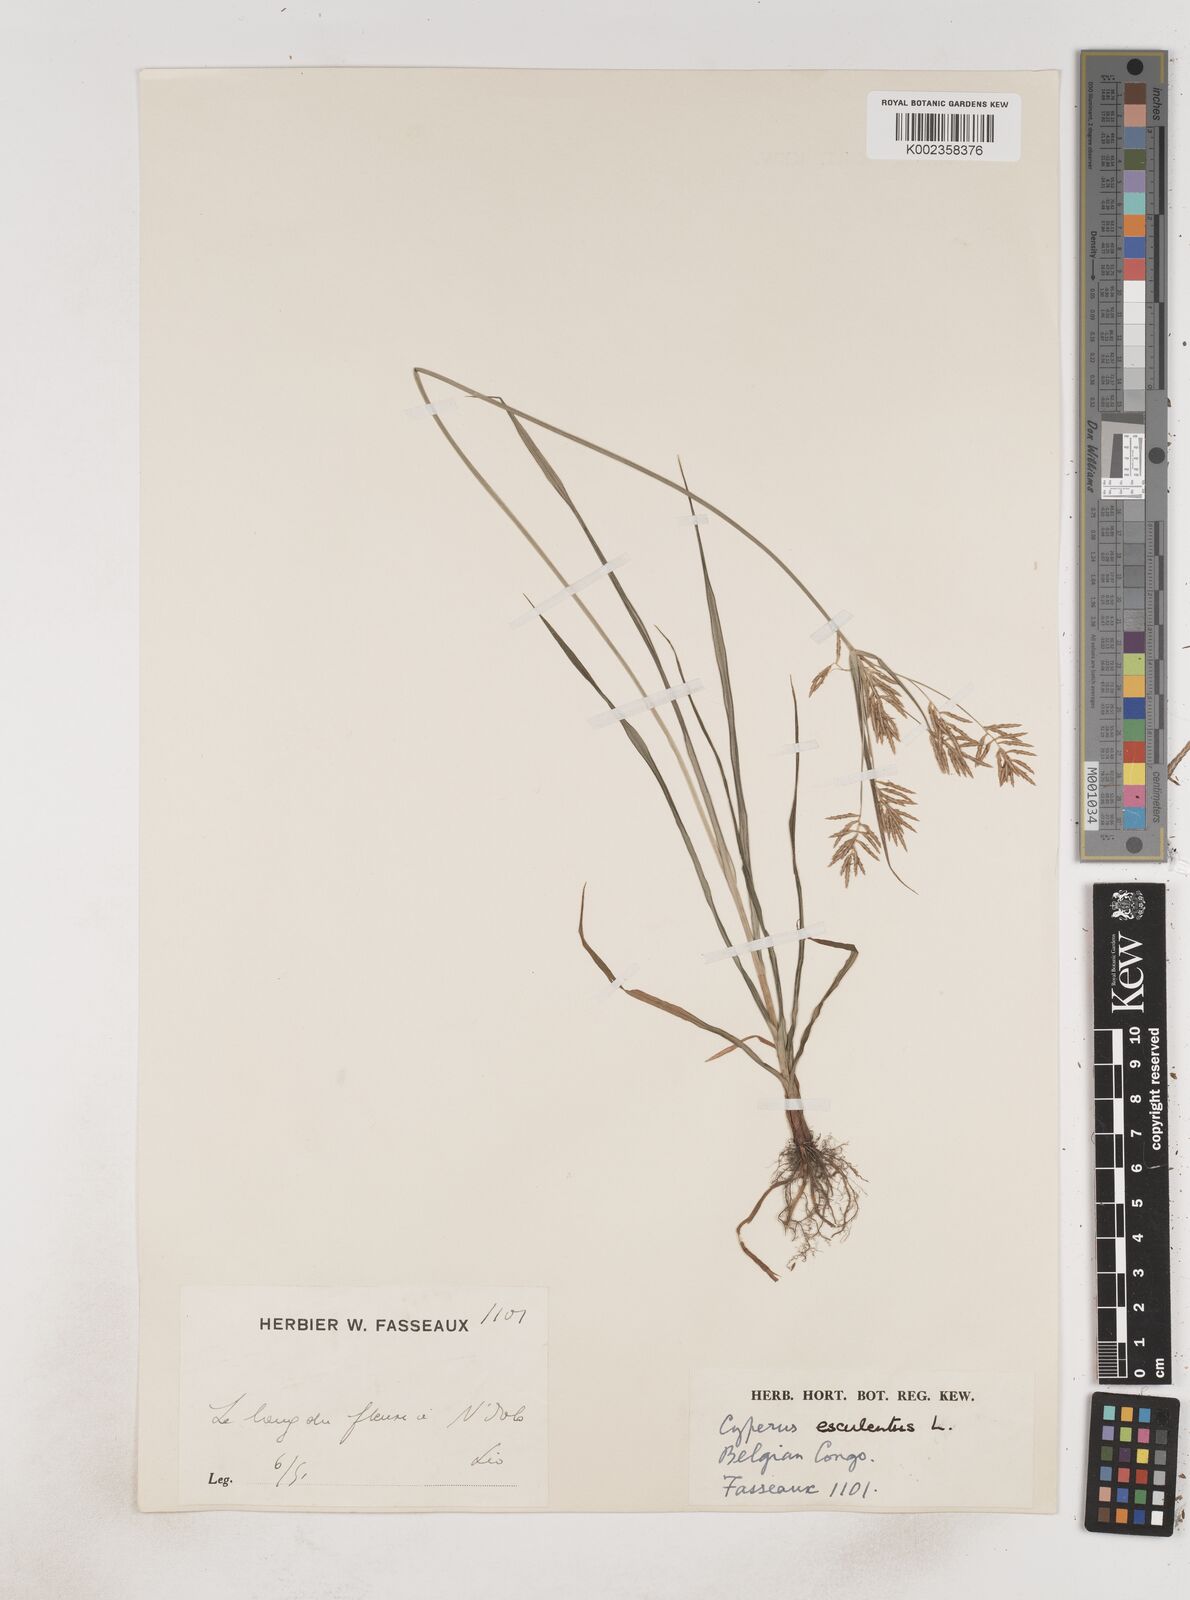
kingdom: Plantae
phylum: Tracheophyta
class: Liliopsida
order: Poales
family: Cyperaceae
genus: Cyperus
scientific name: Cyperus esculentus
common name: Yellow nutsedge
